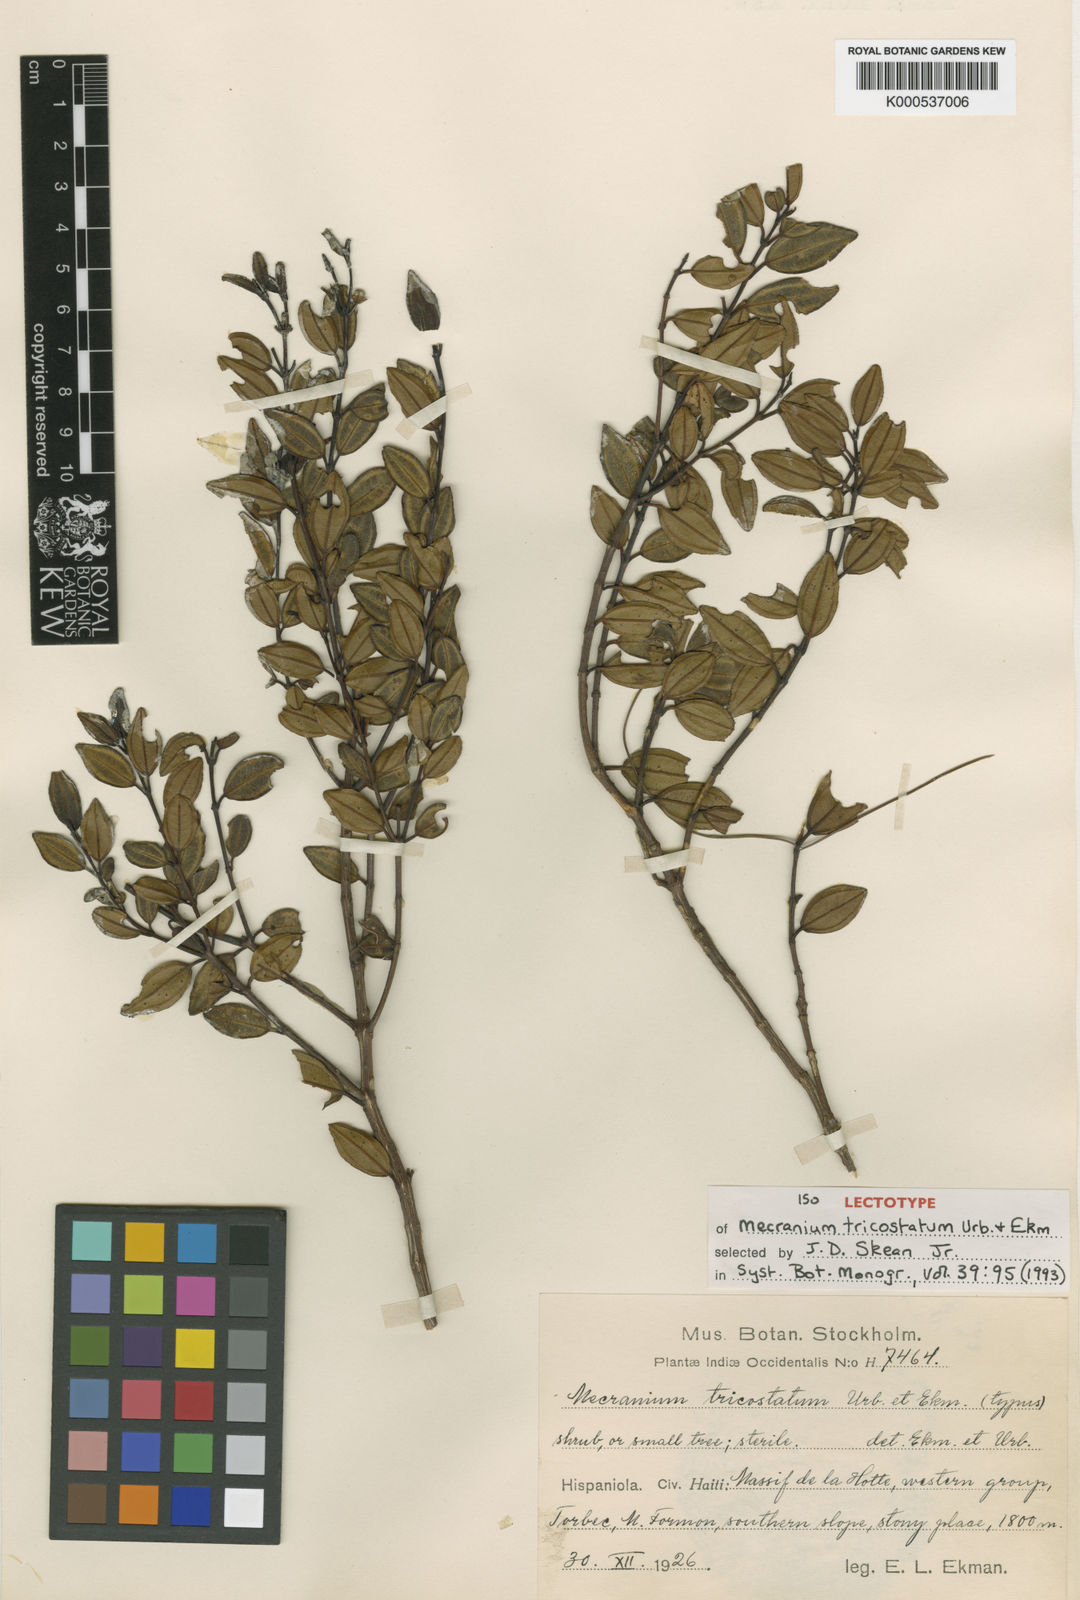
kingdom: Plantae
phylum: Tracheophyta
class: Magnoliopsida
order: Myrtales
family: Melastomataceae
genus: Miconia
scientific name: Miconia tricostata
